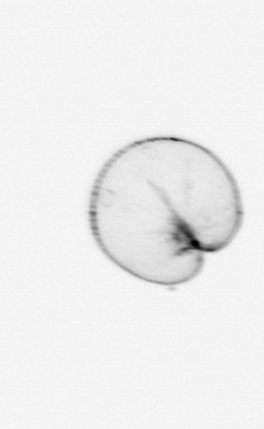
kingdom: Chromista
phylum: Myzozoa
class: Dinophyceae
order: Noctilucales
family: Noctilucaceae
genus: Noctiluca
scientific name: Noctiluca scintillans
